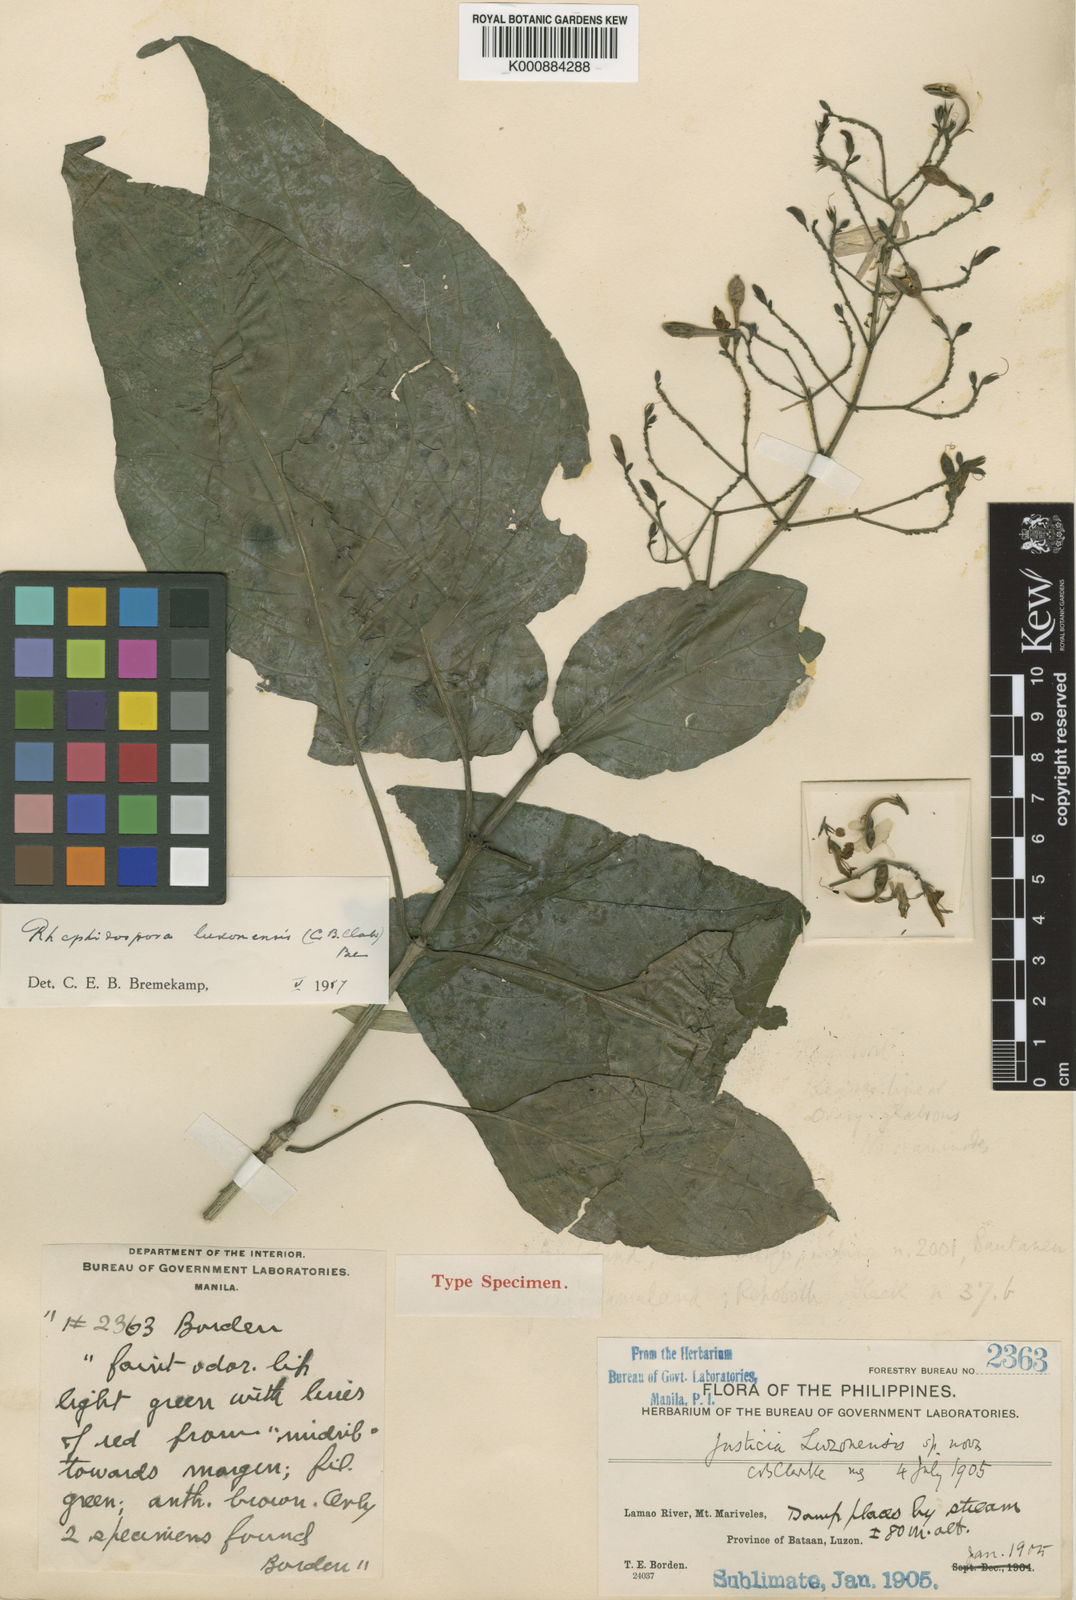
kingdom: Plantae
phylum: Tracheophyta
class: Magnoliopsida
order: Lamiales
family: Acanthaceae
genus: Rhaphidospora
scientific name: Rhaphidospora luzonensis
